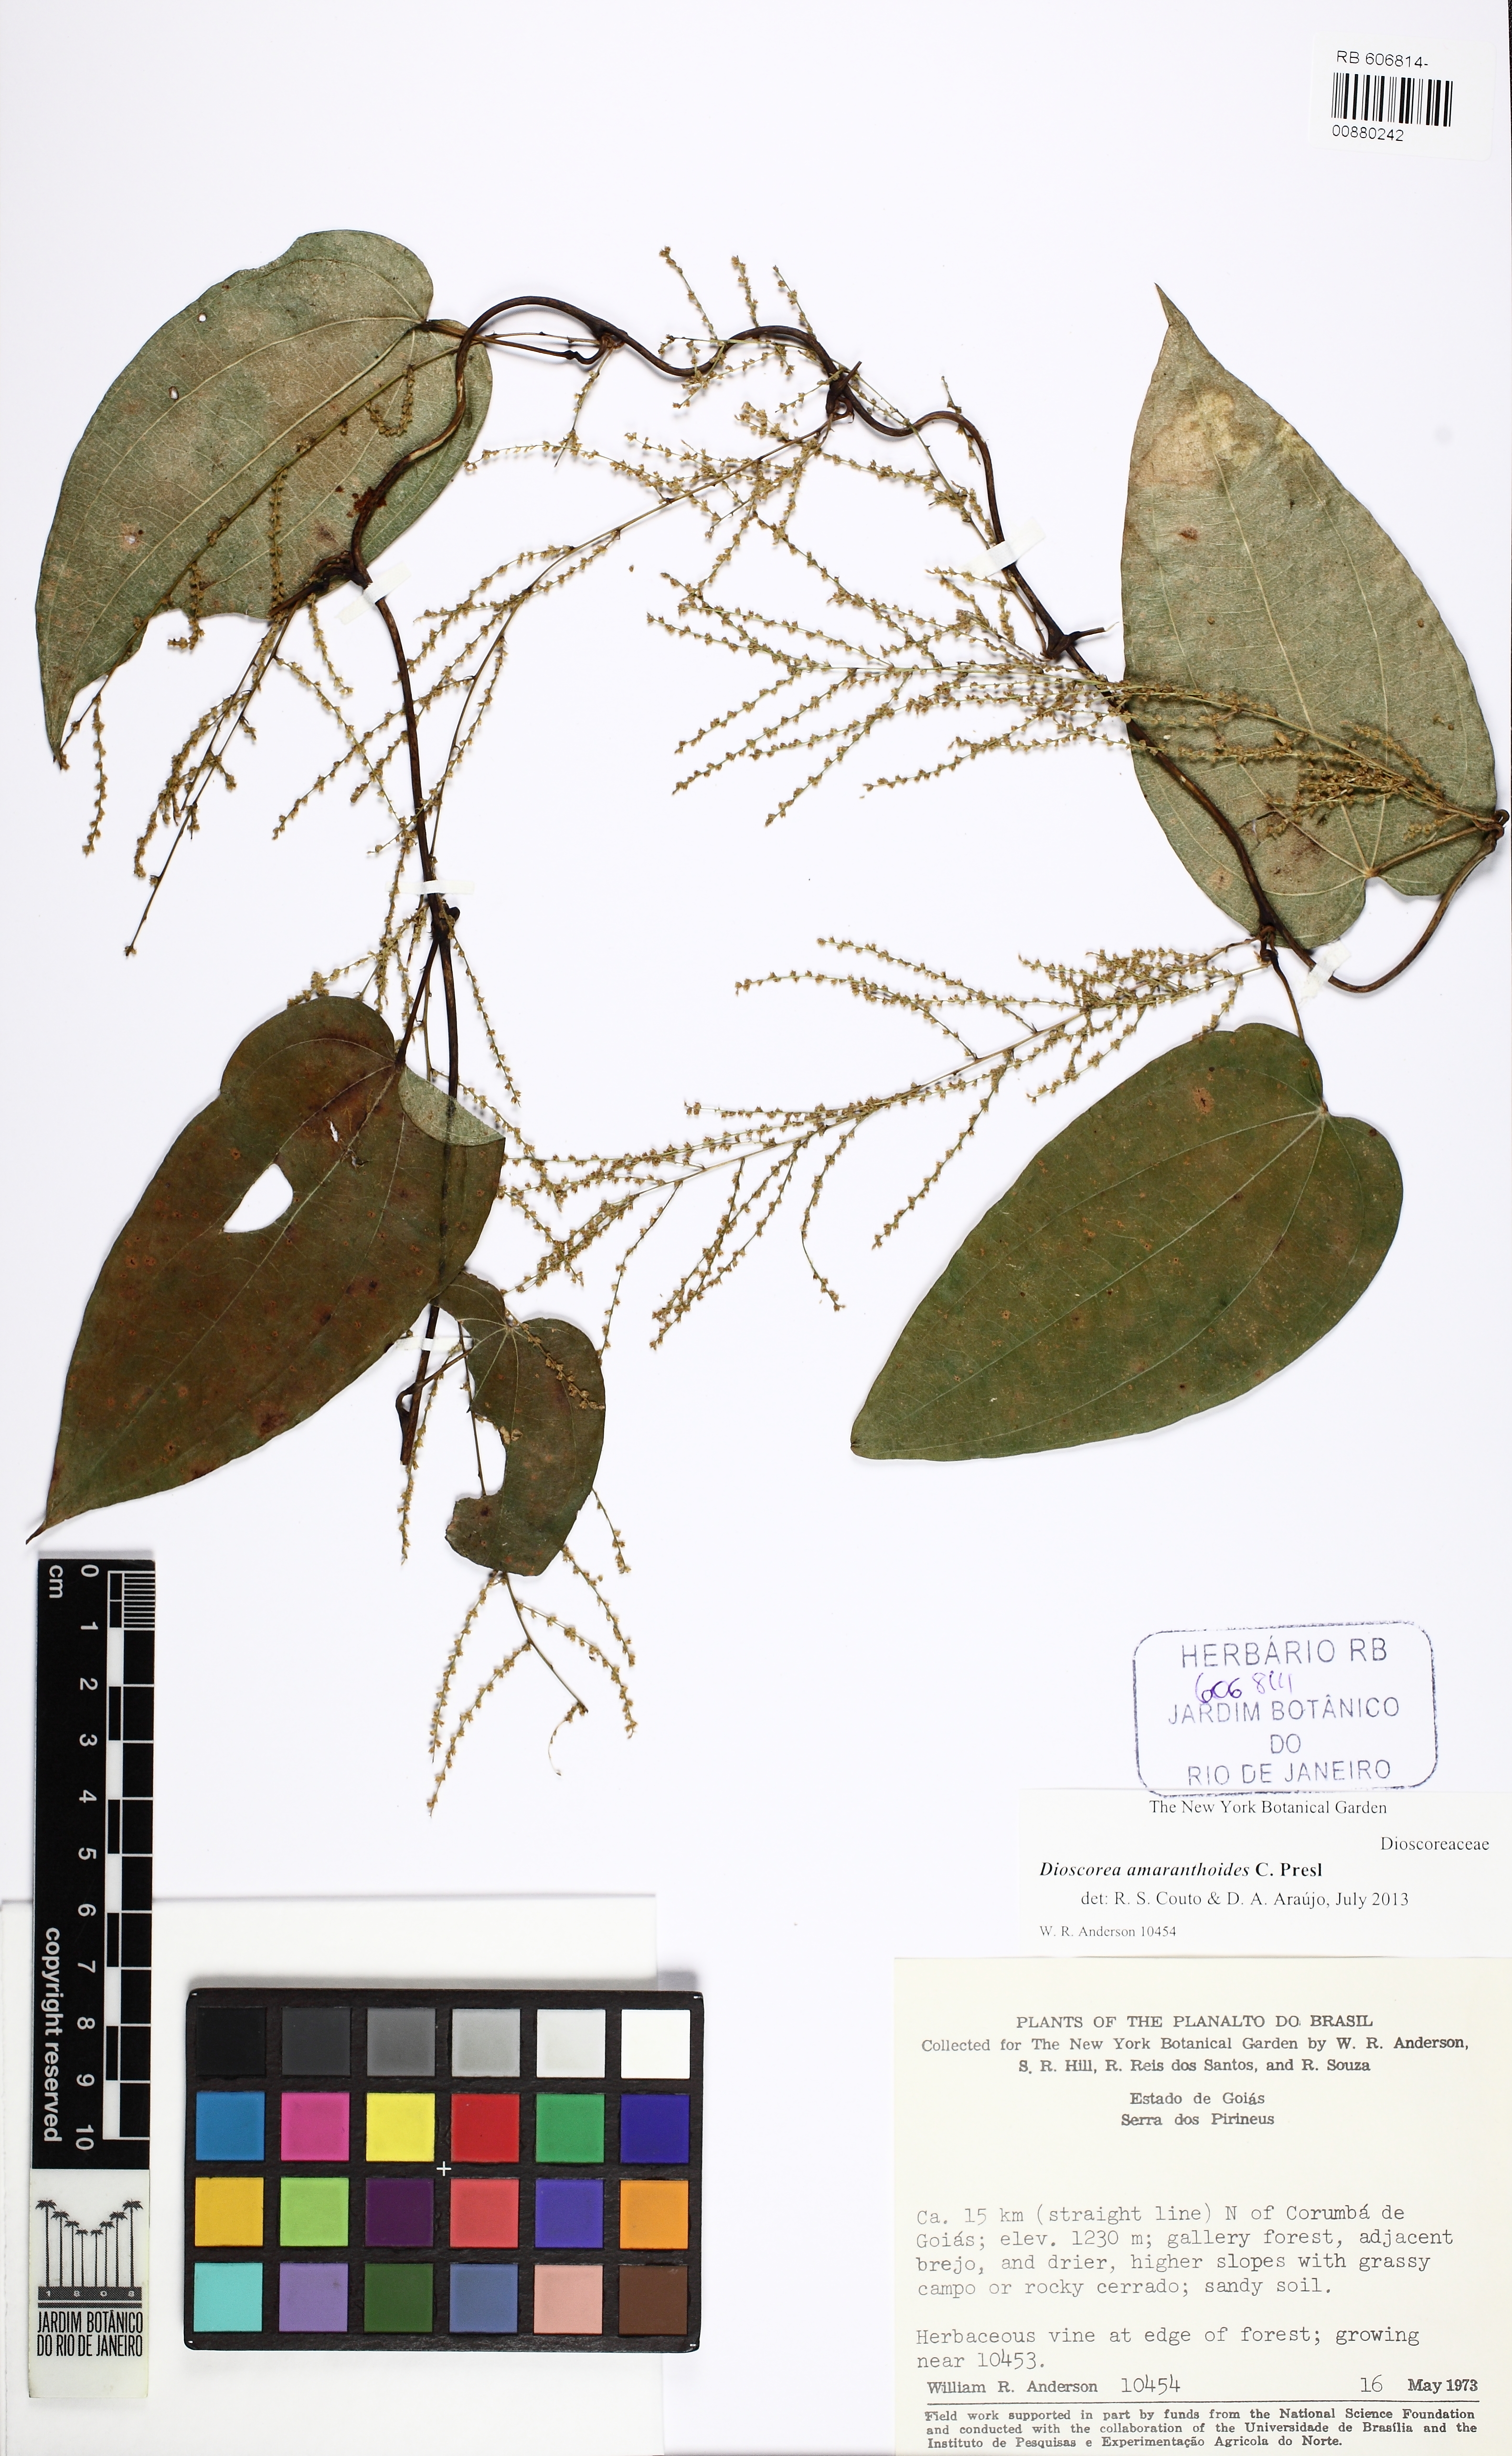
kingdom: Plantae
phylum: Tracheophyta
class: Liliopsida
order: Dioscoreales
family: Dioscoreaceae
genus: Dioscorea
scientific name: Dioscorea amaranthoides
